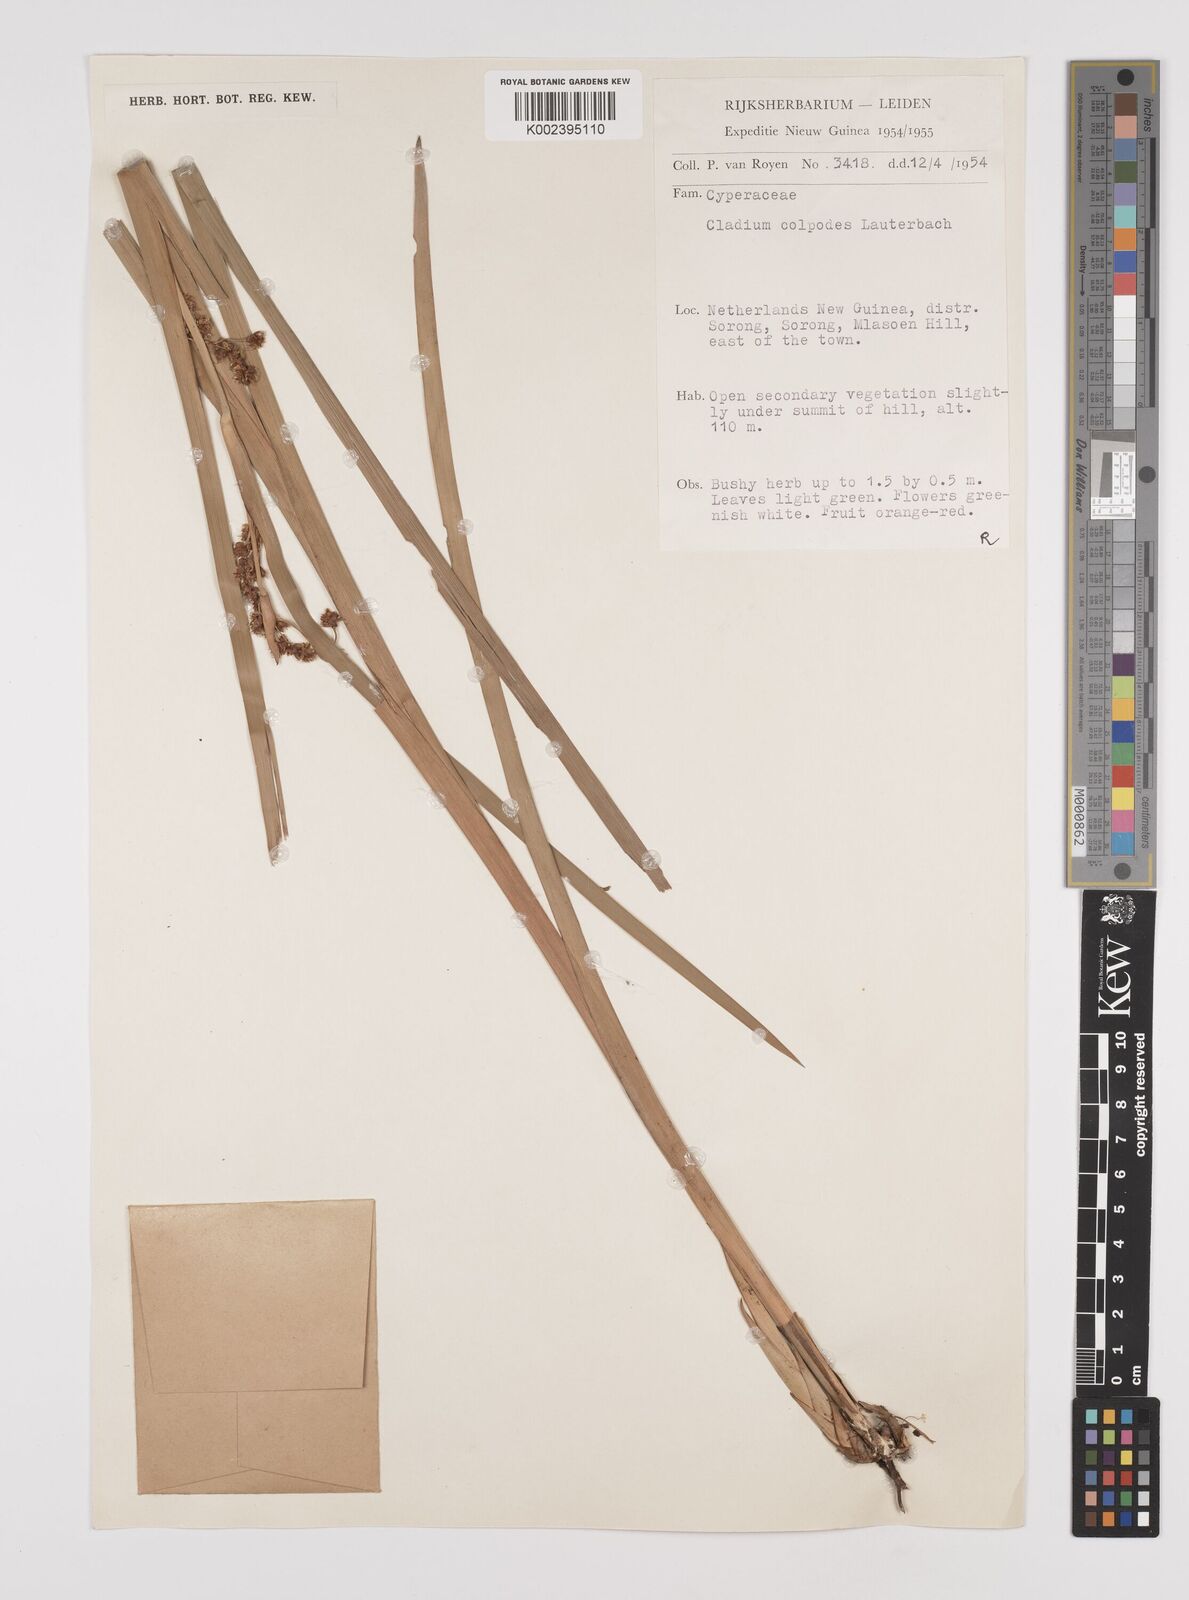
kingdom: Plantae
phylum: Tracheophyta
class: Liliopsida
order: Poales
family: Cyperaceae
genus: Machaerina
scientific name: Machaerina glomerata
